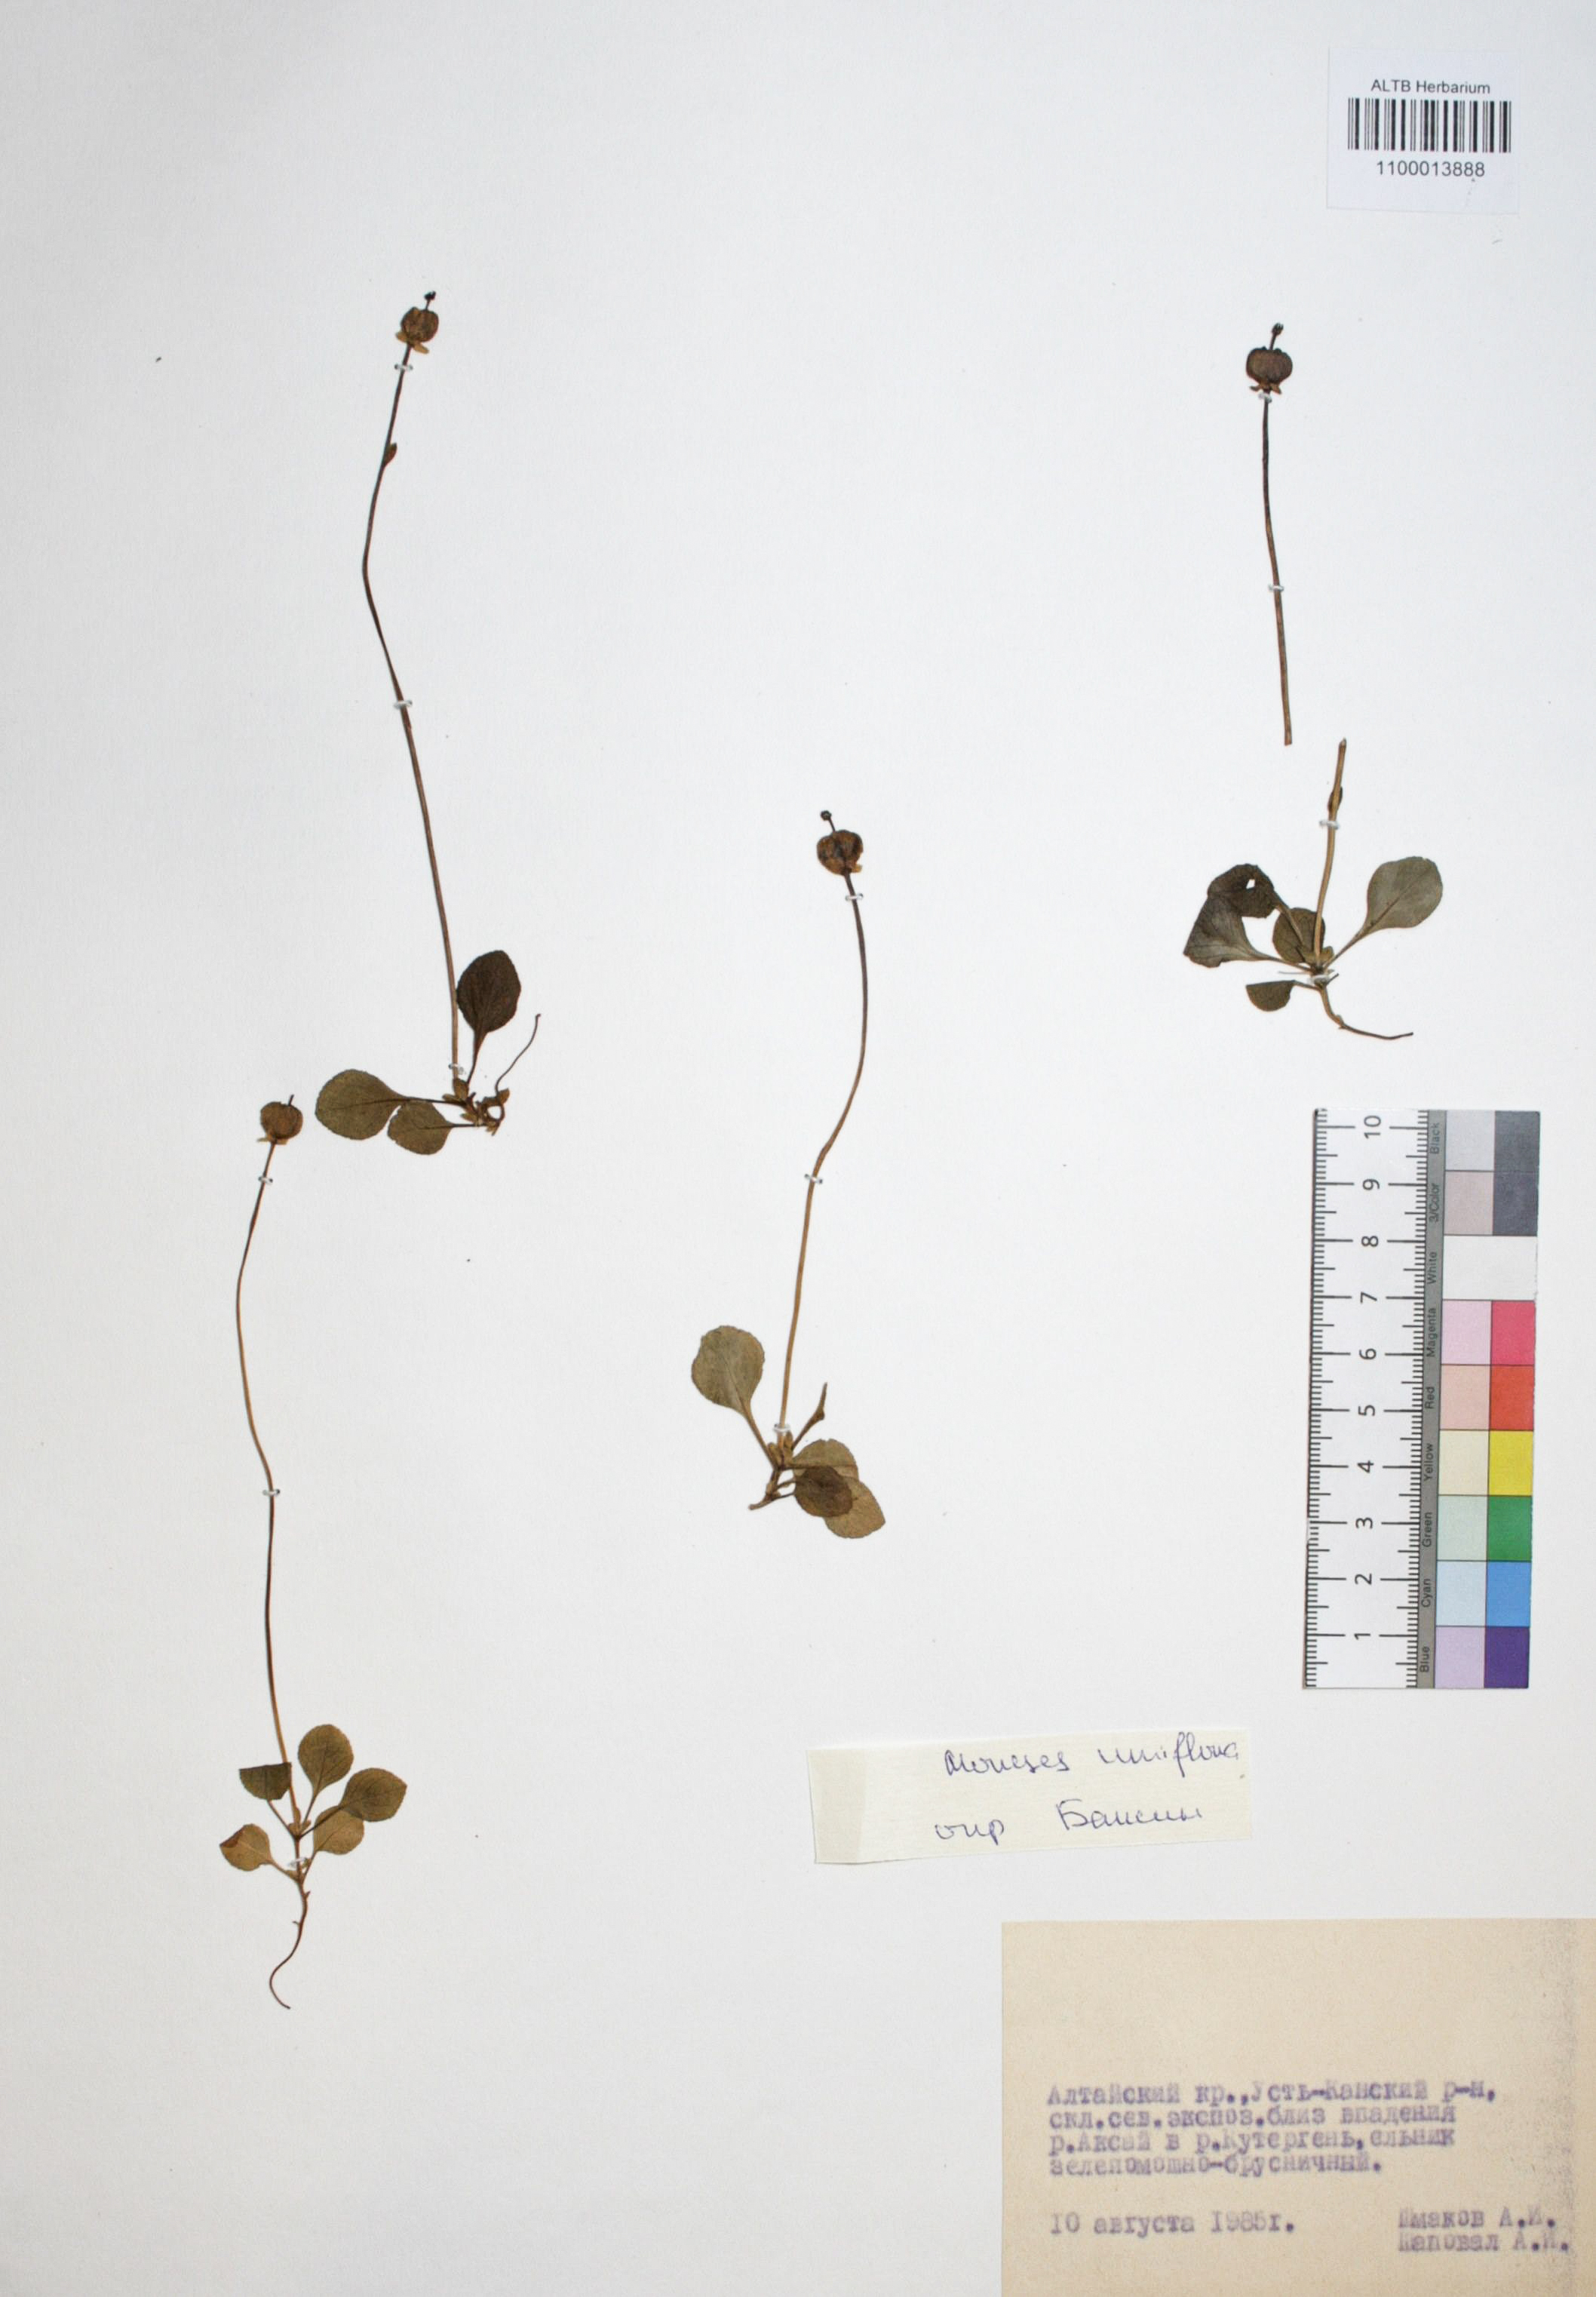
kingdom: Plantae
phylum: Tracheophyta
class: Magnoliopsida
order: Ericales
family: Ericaceae
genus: Moneses
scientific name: Moneses uniflora
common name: One-flowered wintergreen
